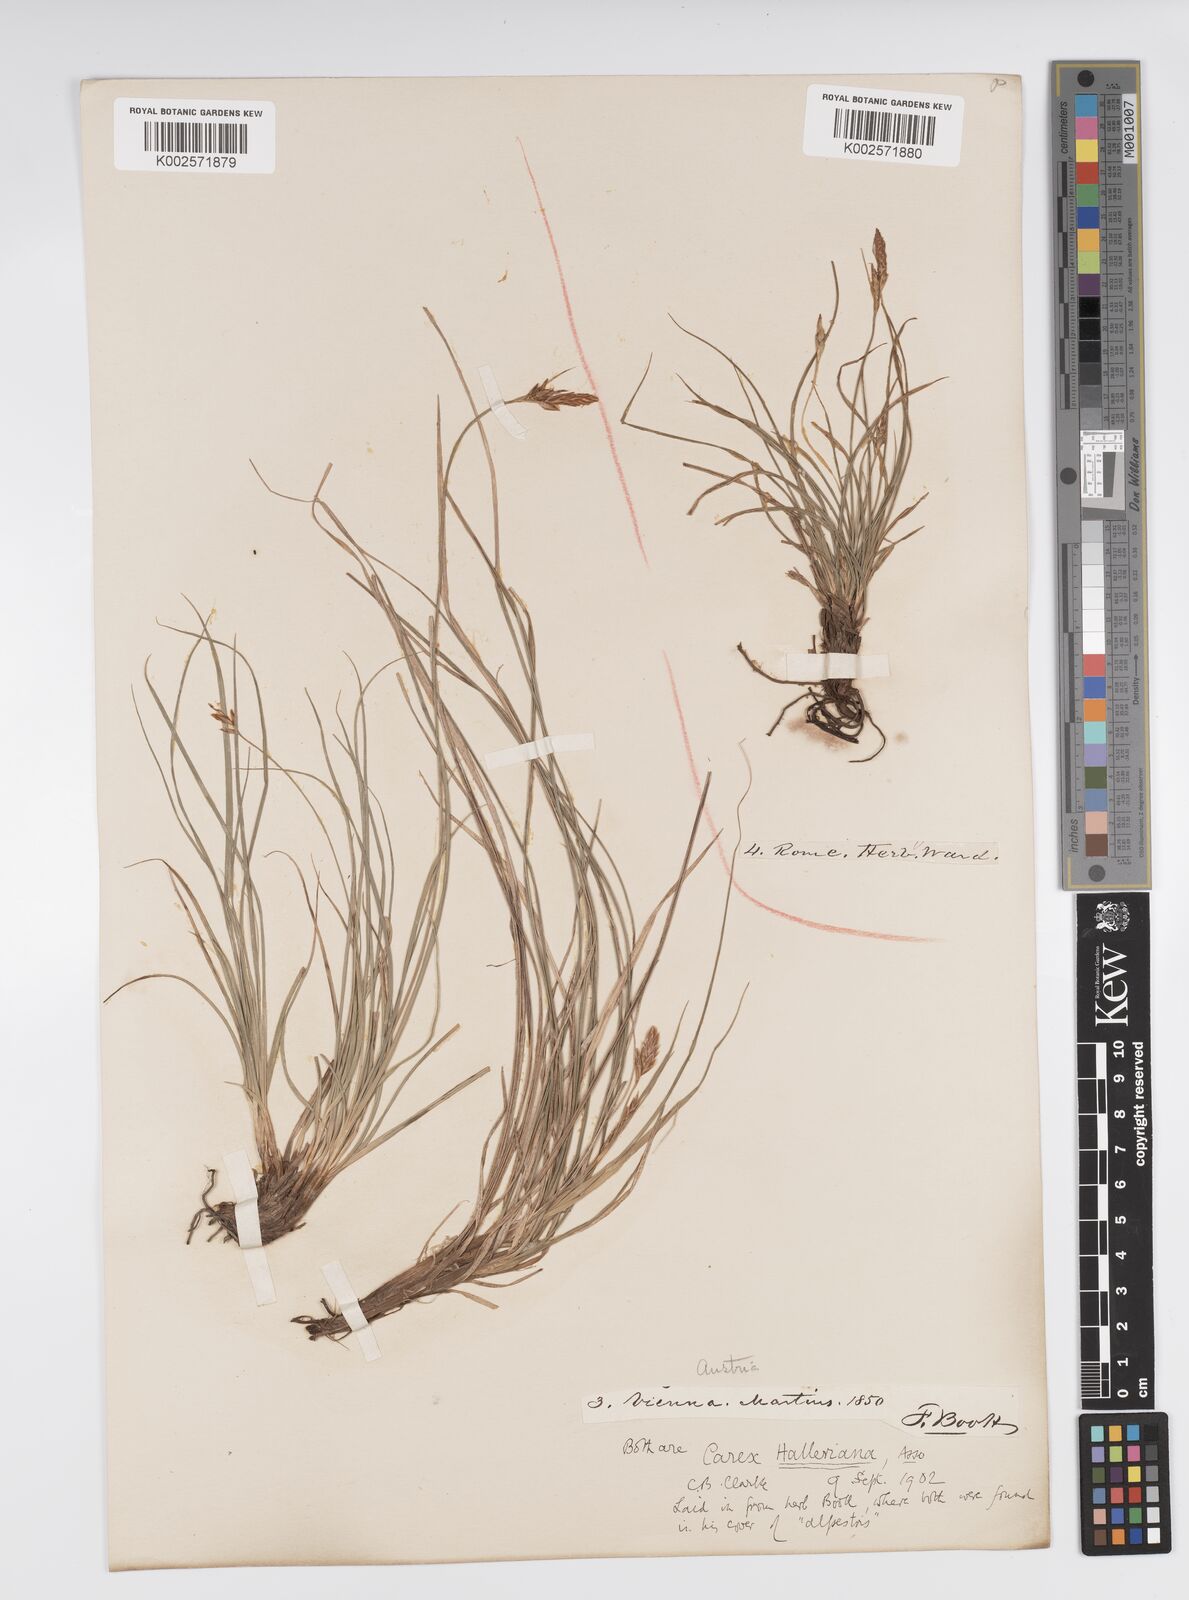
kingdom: Plantae
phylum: Tracheophyta
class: Liliopsida
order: Poales
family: Cyperaceae
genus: Carex
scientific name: Carex halleriana
